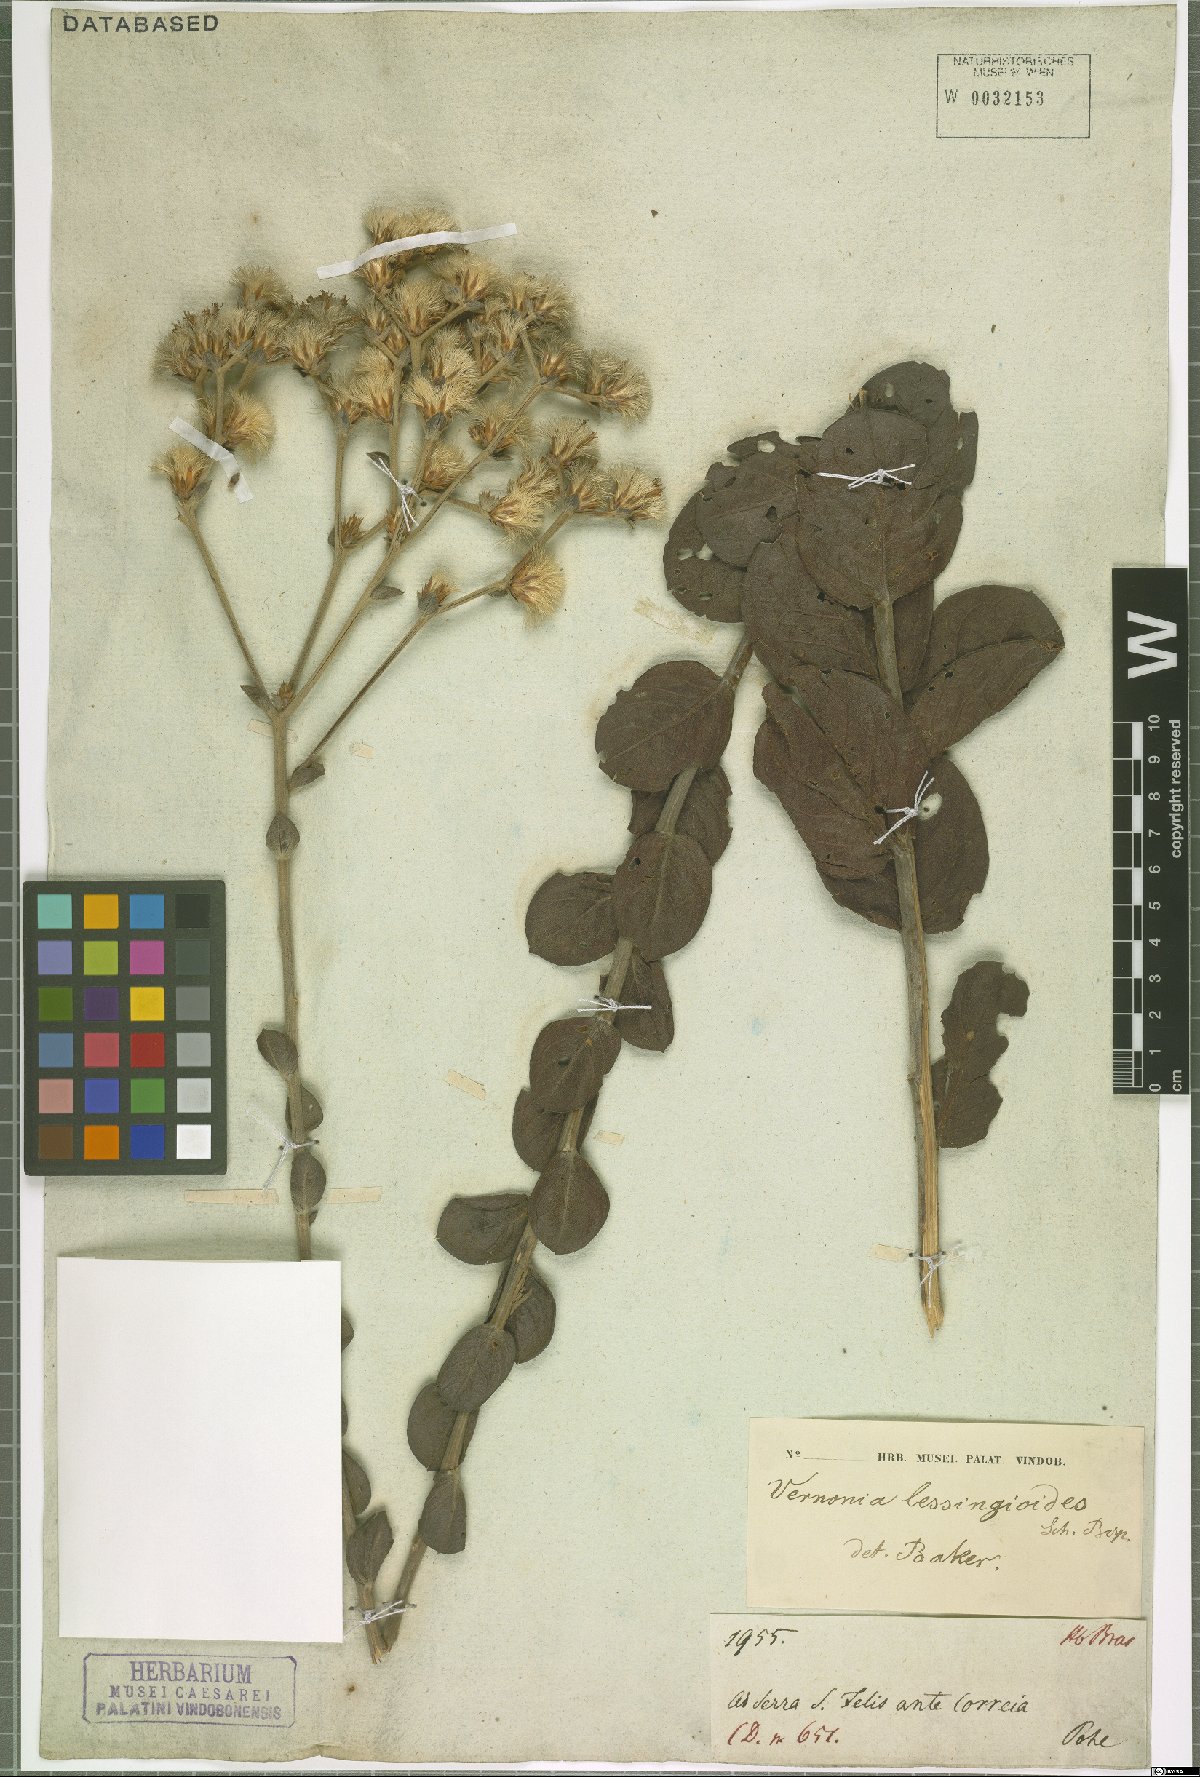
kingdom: Plantae
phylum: Tracheophyta
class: Magnoliopsida
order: Asterales
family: Asteraceae
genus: Lepidaploa
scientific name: Lepidaploa barbata
